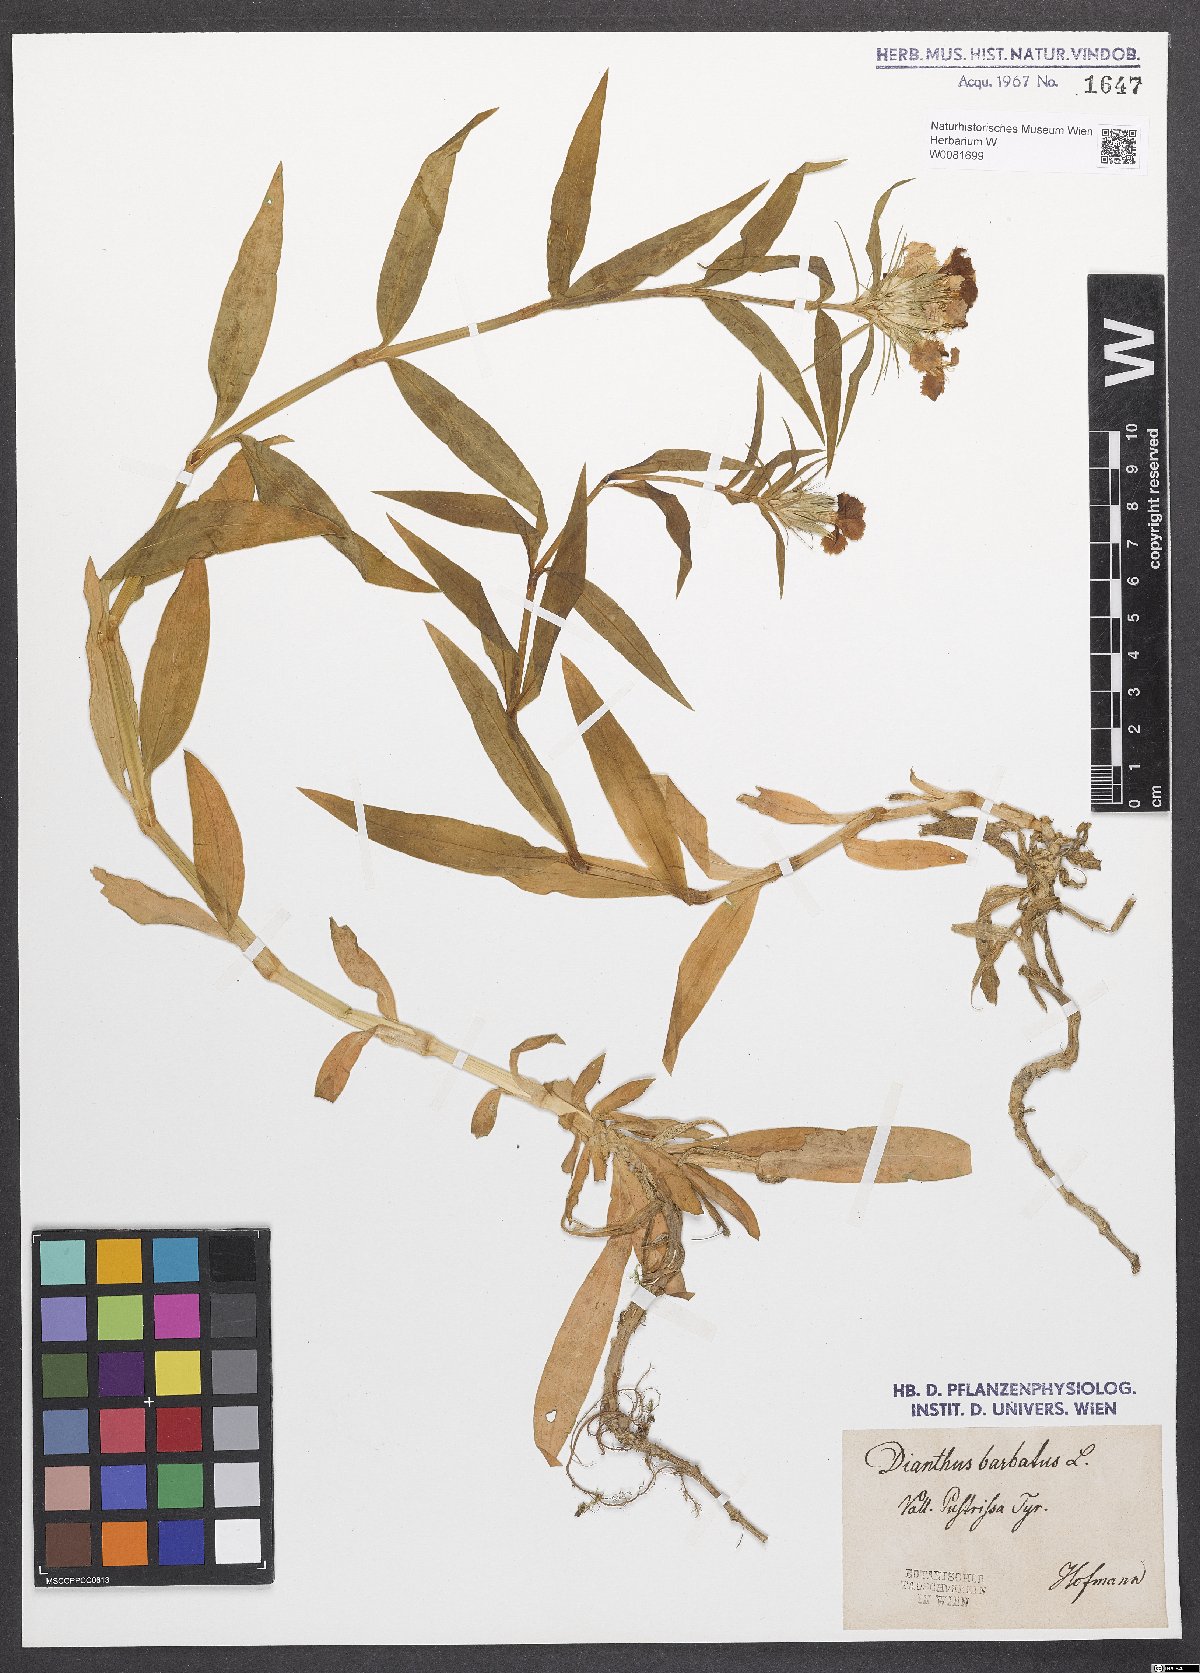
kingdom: Plantae
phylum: Tracheophyta
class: Magnoliopsida
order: Caryophyllales
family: Caryophyllaceae
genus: Dianthus
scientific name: Dianthus barbatus
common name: Sweet-william
